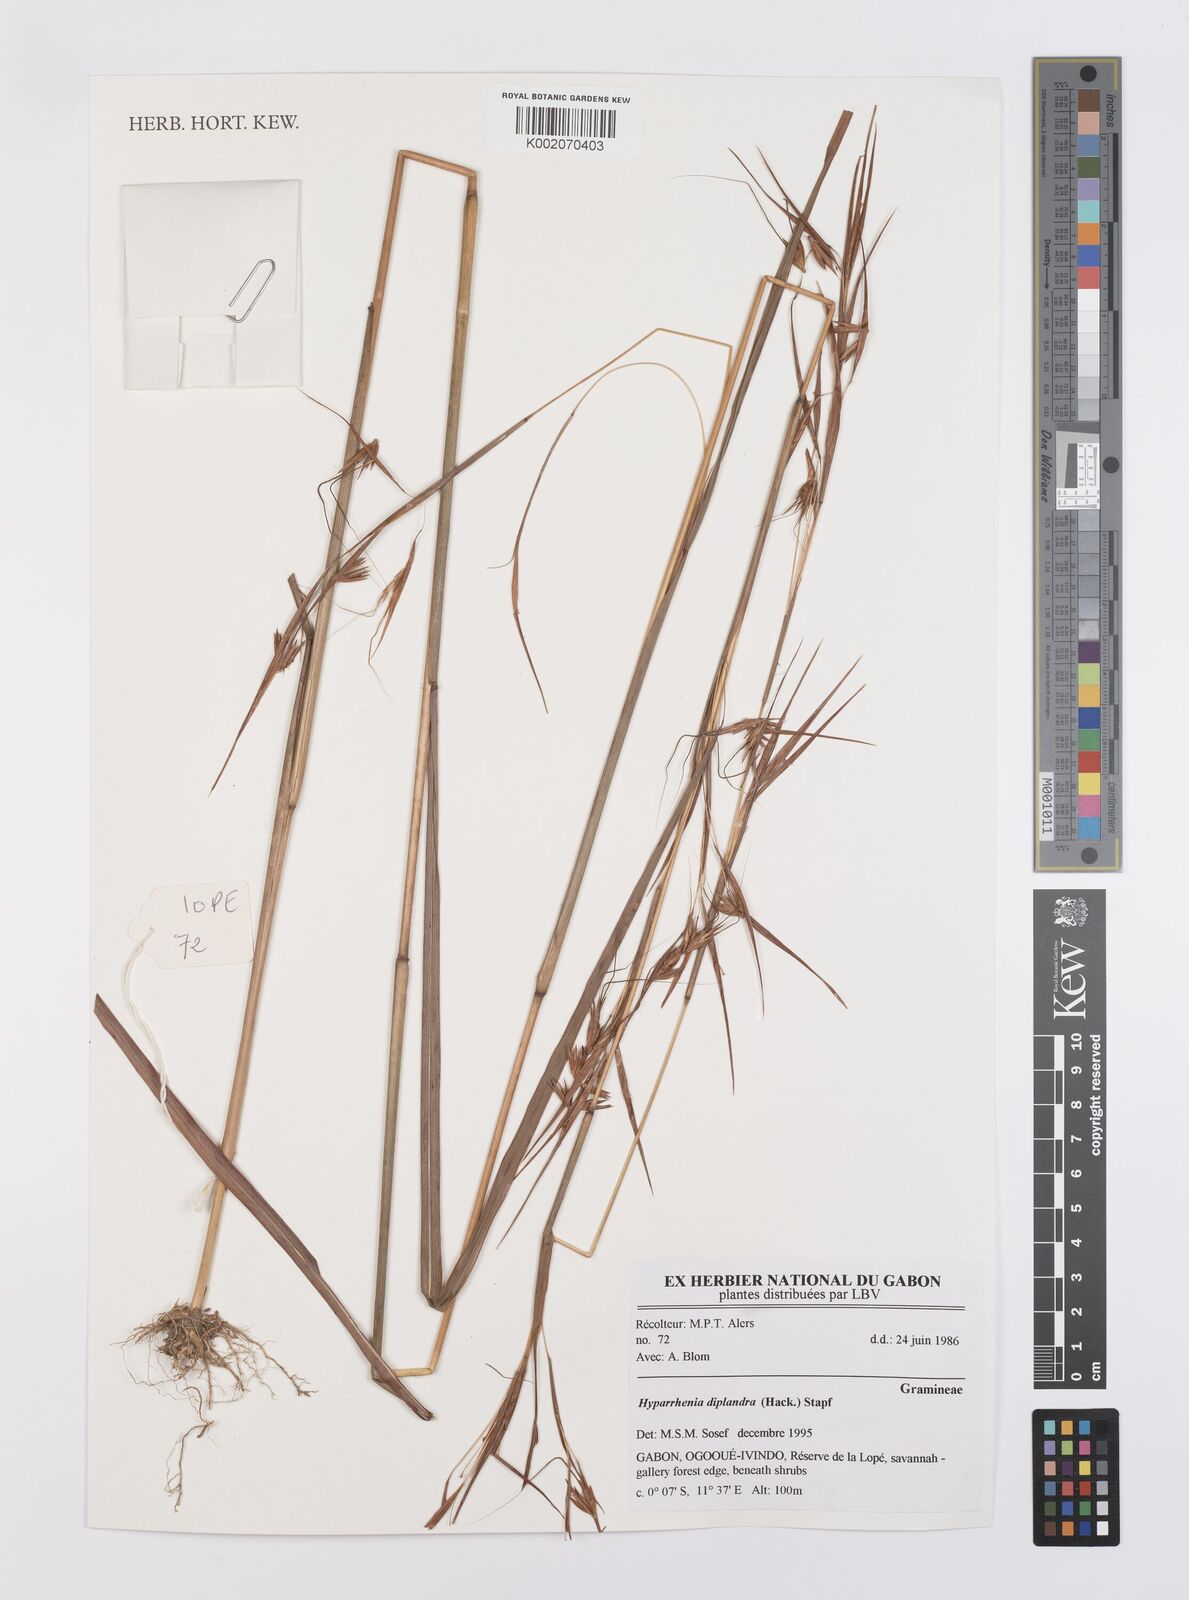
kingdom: Plantae
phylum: Tracheophyta
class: Liliopsida
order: Poales
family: Poaceae
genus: Hyparrhenia
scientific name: Hyparrhenia diplandra
